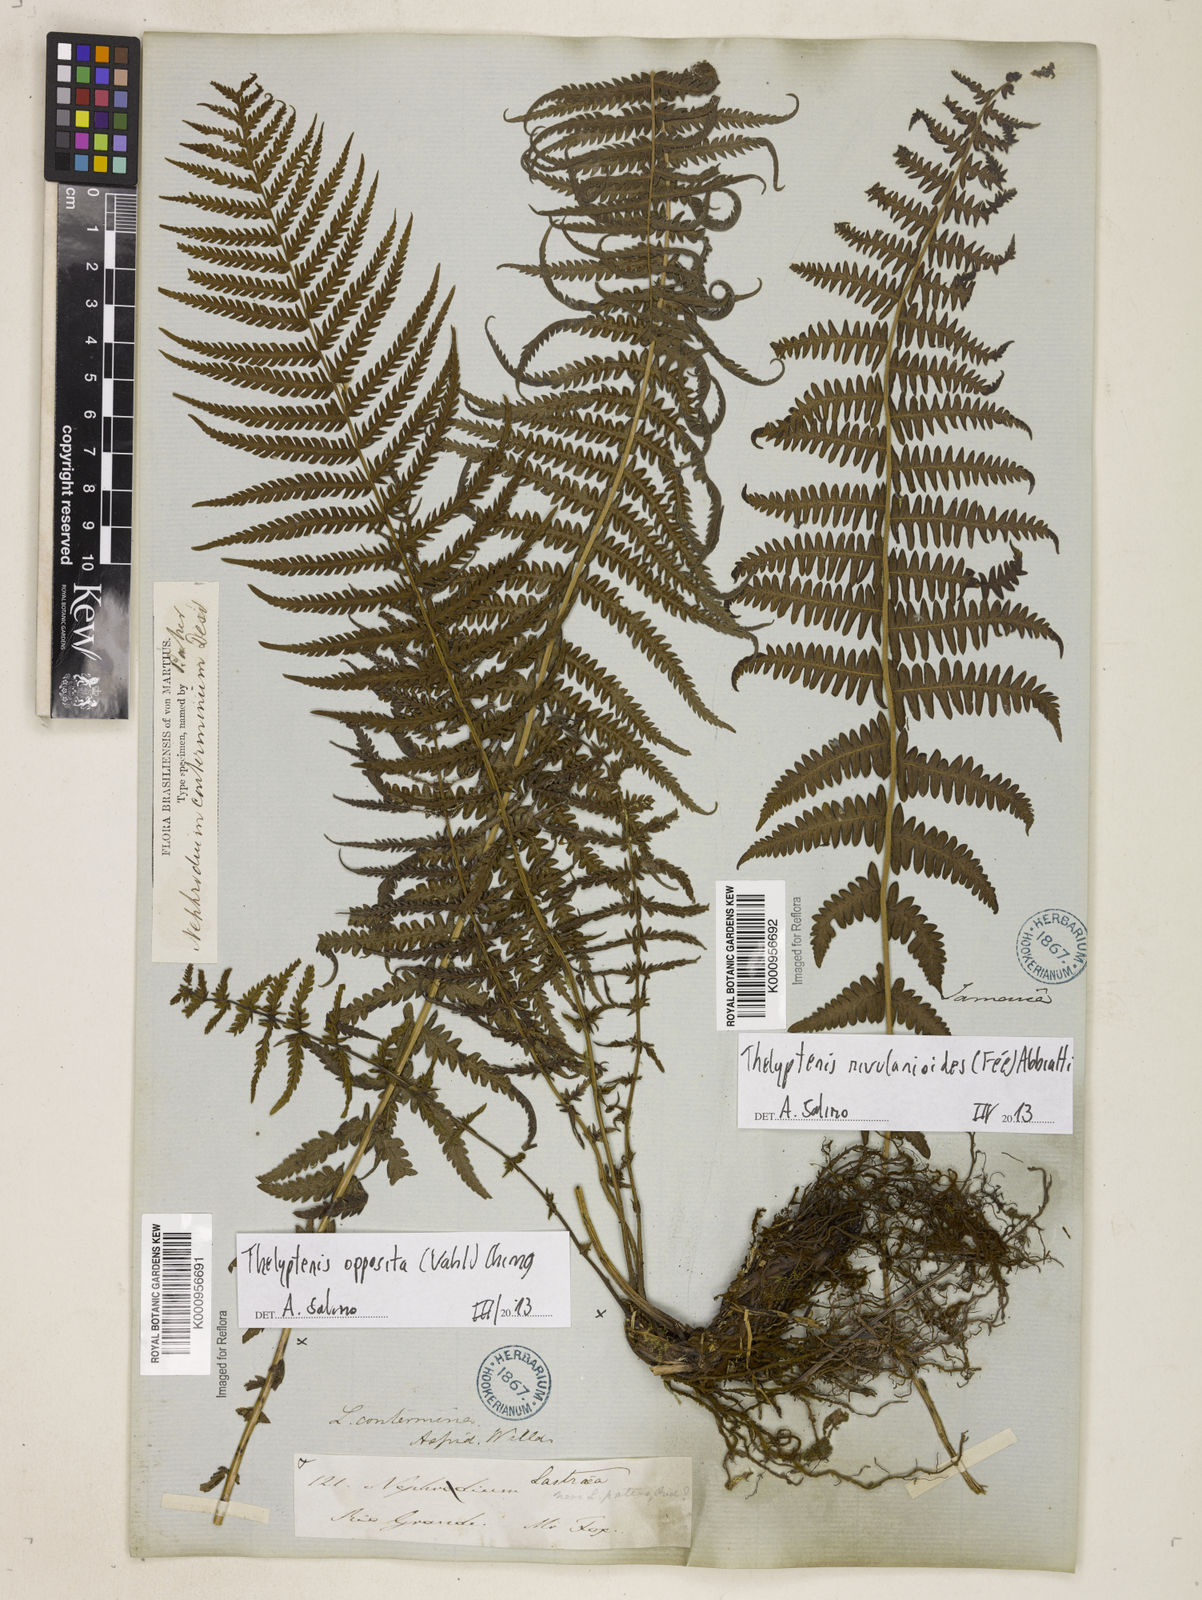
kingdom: Plantae
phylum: Tracheophyta
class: Polypodiopsida
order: Polypodiales
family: Thelypteridaceae
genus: Amauropelta
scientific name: Amauropelta opposita
